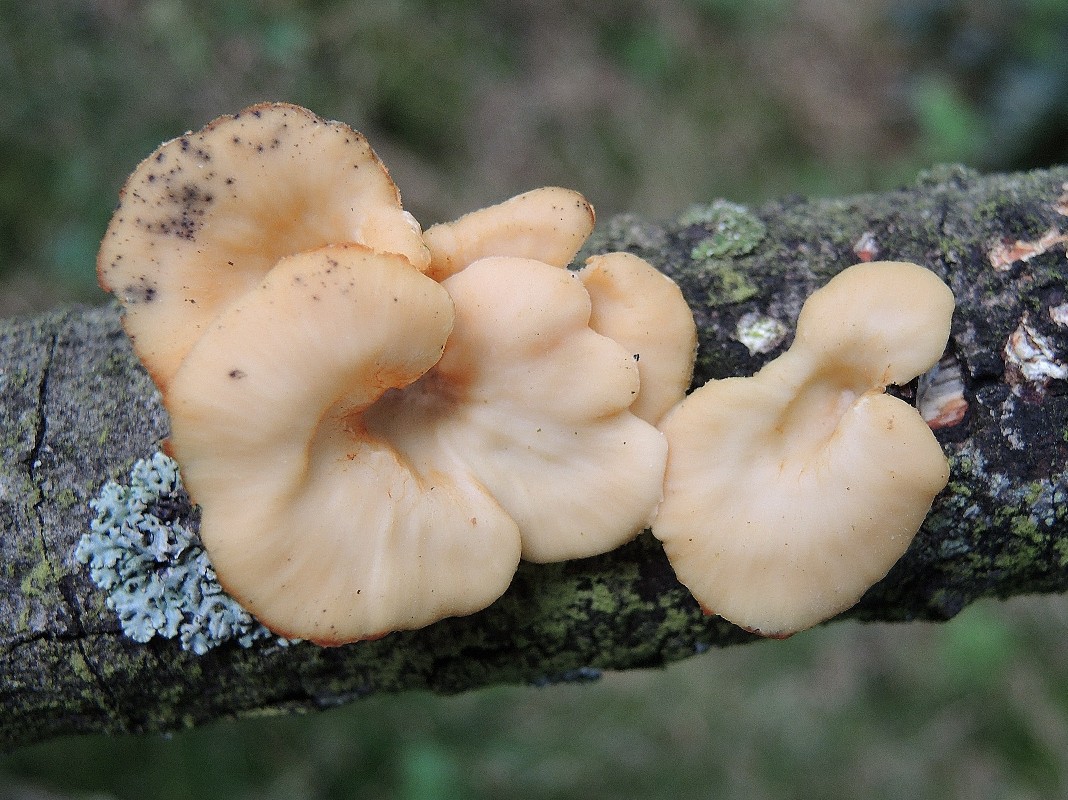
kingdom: Fungi
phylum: Basidiomycota
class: Agaricomycetes
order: Polyporales
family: Polyporaceae
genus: Neofavolus
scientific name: Neofavolus suavissimus
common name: anishat
